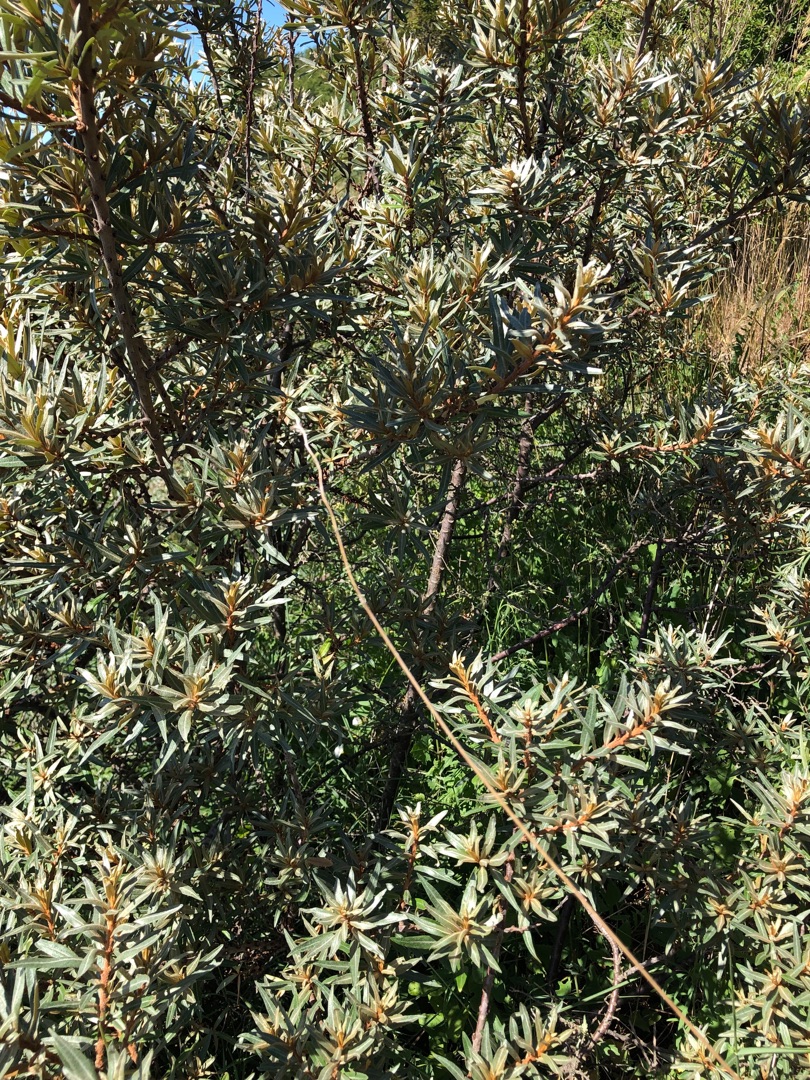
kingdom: Plantae
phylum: Tracheophyta
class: Magnoliopsida
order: Rosales
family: Elaeagnaceae
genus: Hippophae
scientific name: Hippophae rhamnoides
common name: Havtorn
